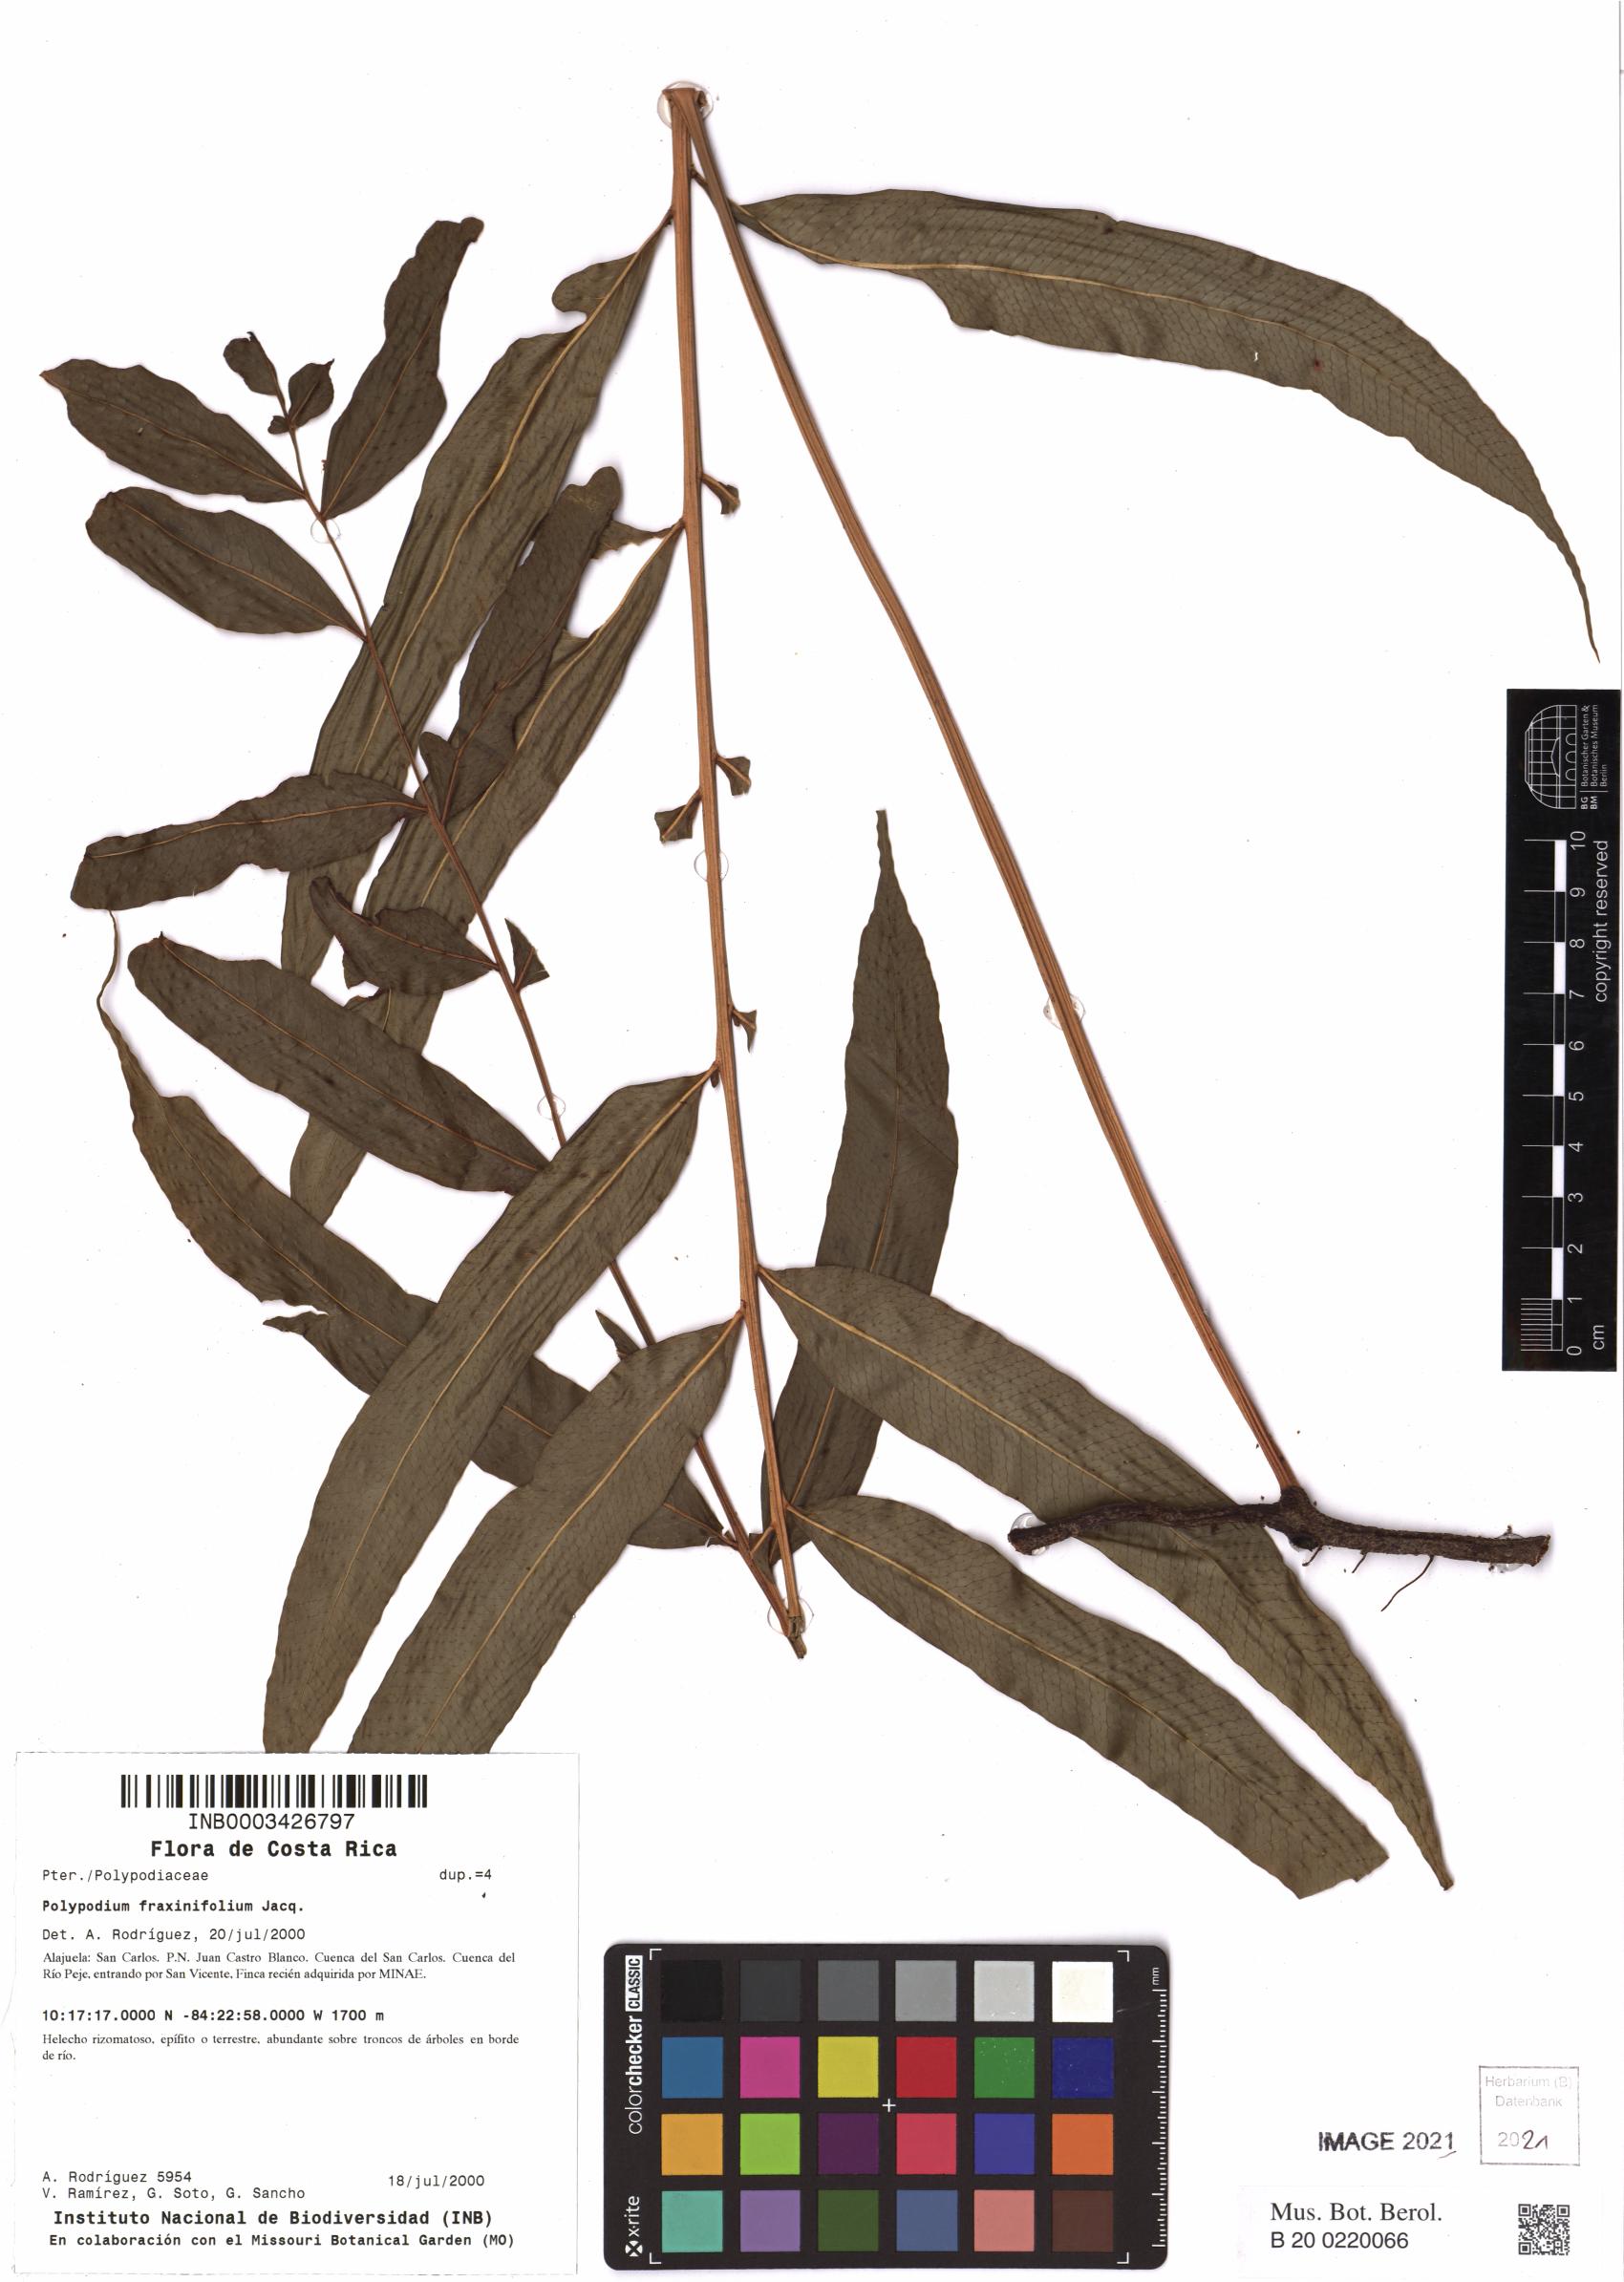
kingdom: Plantae
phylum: Tracheophyta
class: Polypodiopsida
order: Polypodiales
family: Polypodiaceae
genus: Serpocaulon
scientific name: Serpocaulon fraxinifolium
